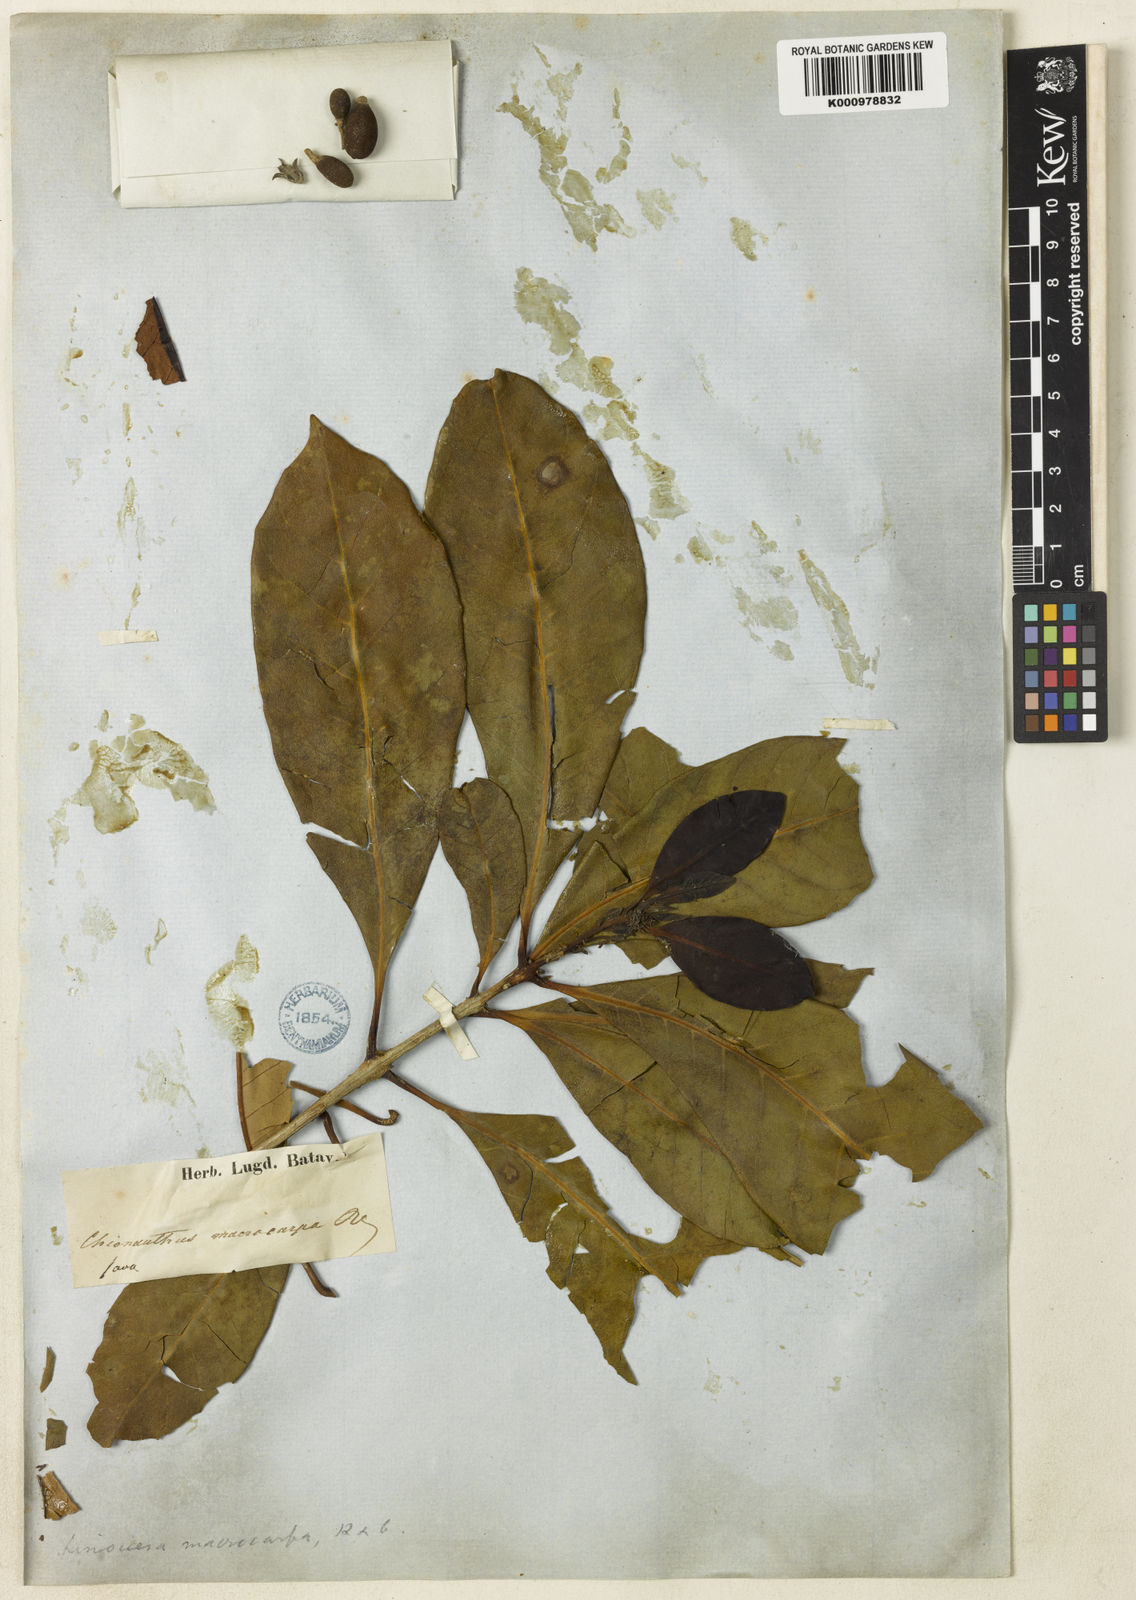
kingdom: Plantae
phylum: Tracheophyta
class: Magnoliopsida
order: Lamiales
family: Oleaceae
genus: Chionanthus
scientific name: Chionanthus macrocarpus
